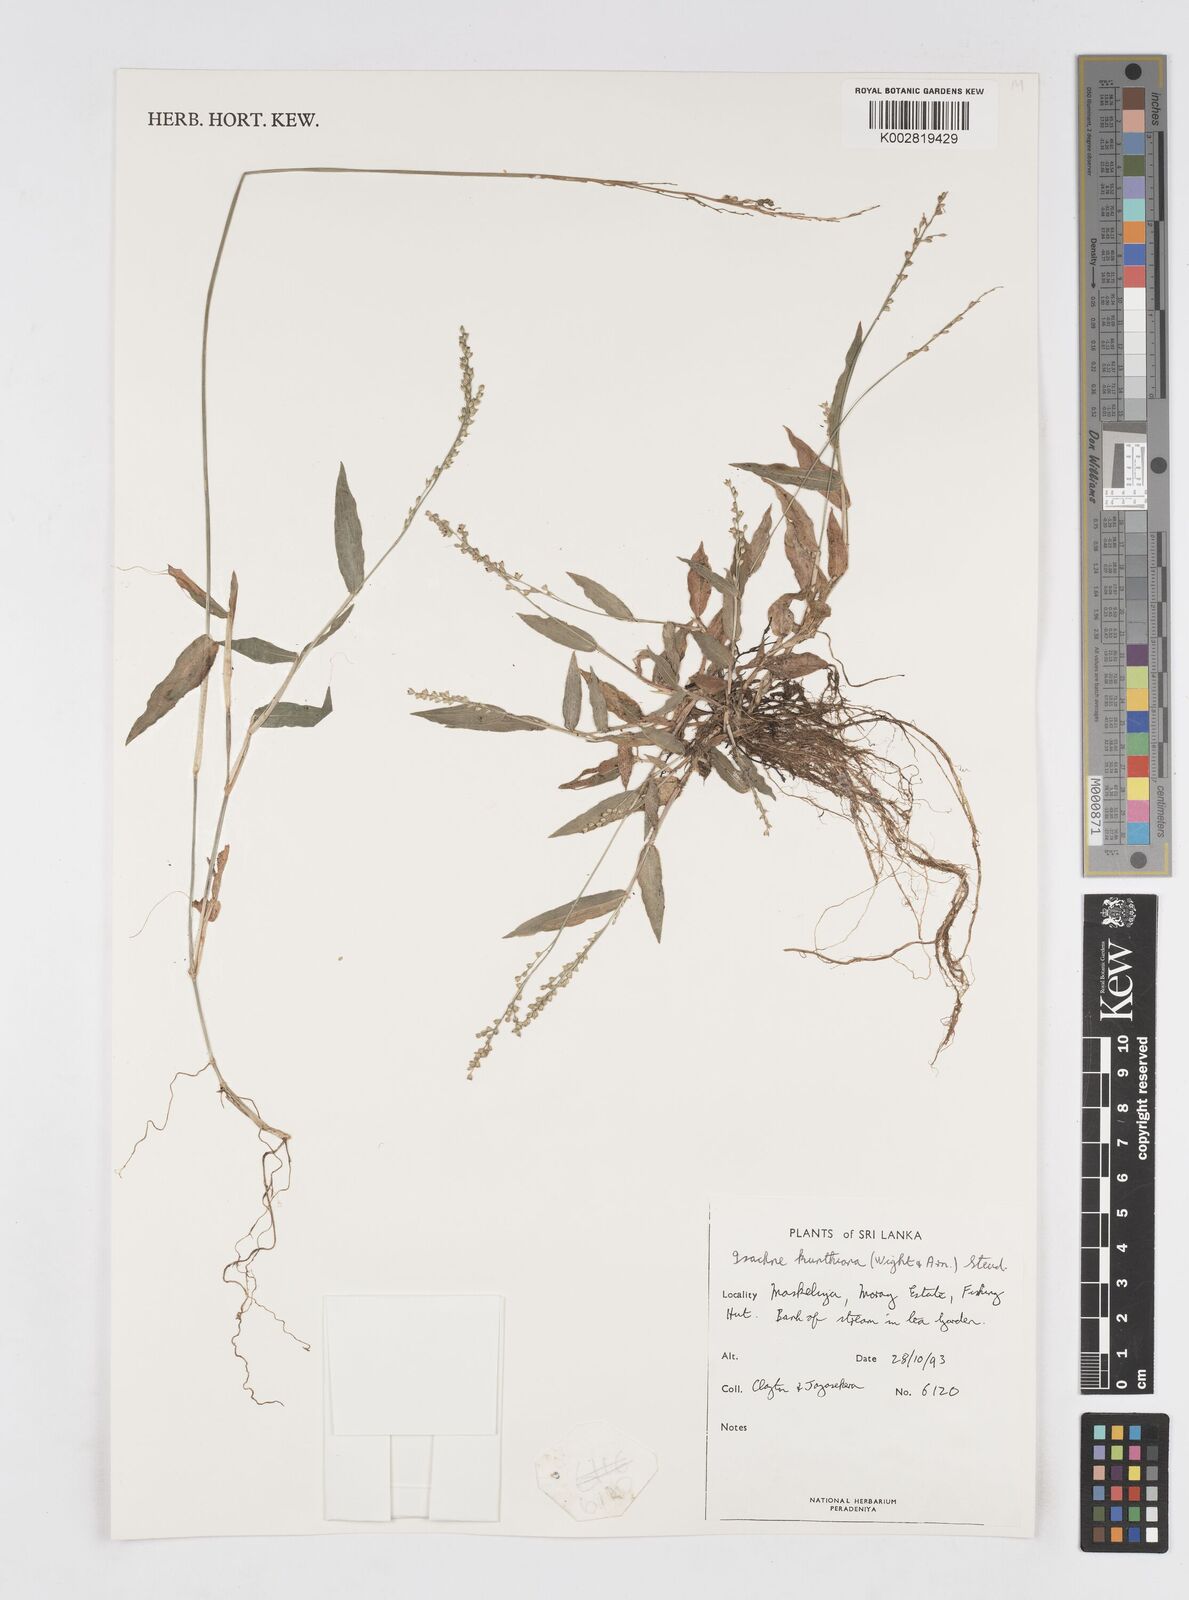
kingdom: Plantae
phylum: Tracheophyta
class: Liliopsida
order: Poales
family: Poaceae
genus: Isachne
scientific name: Isachne kunthiana
